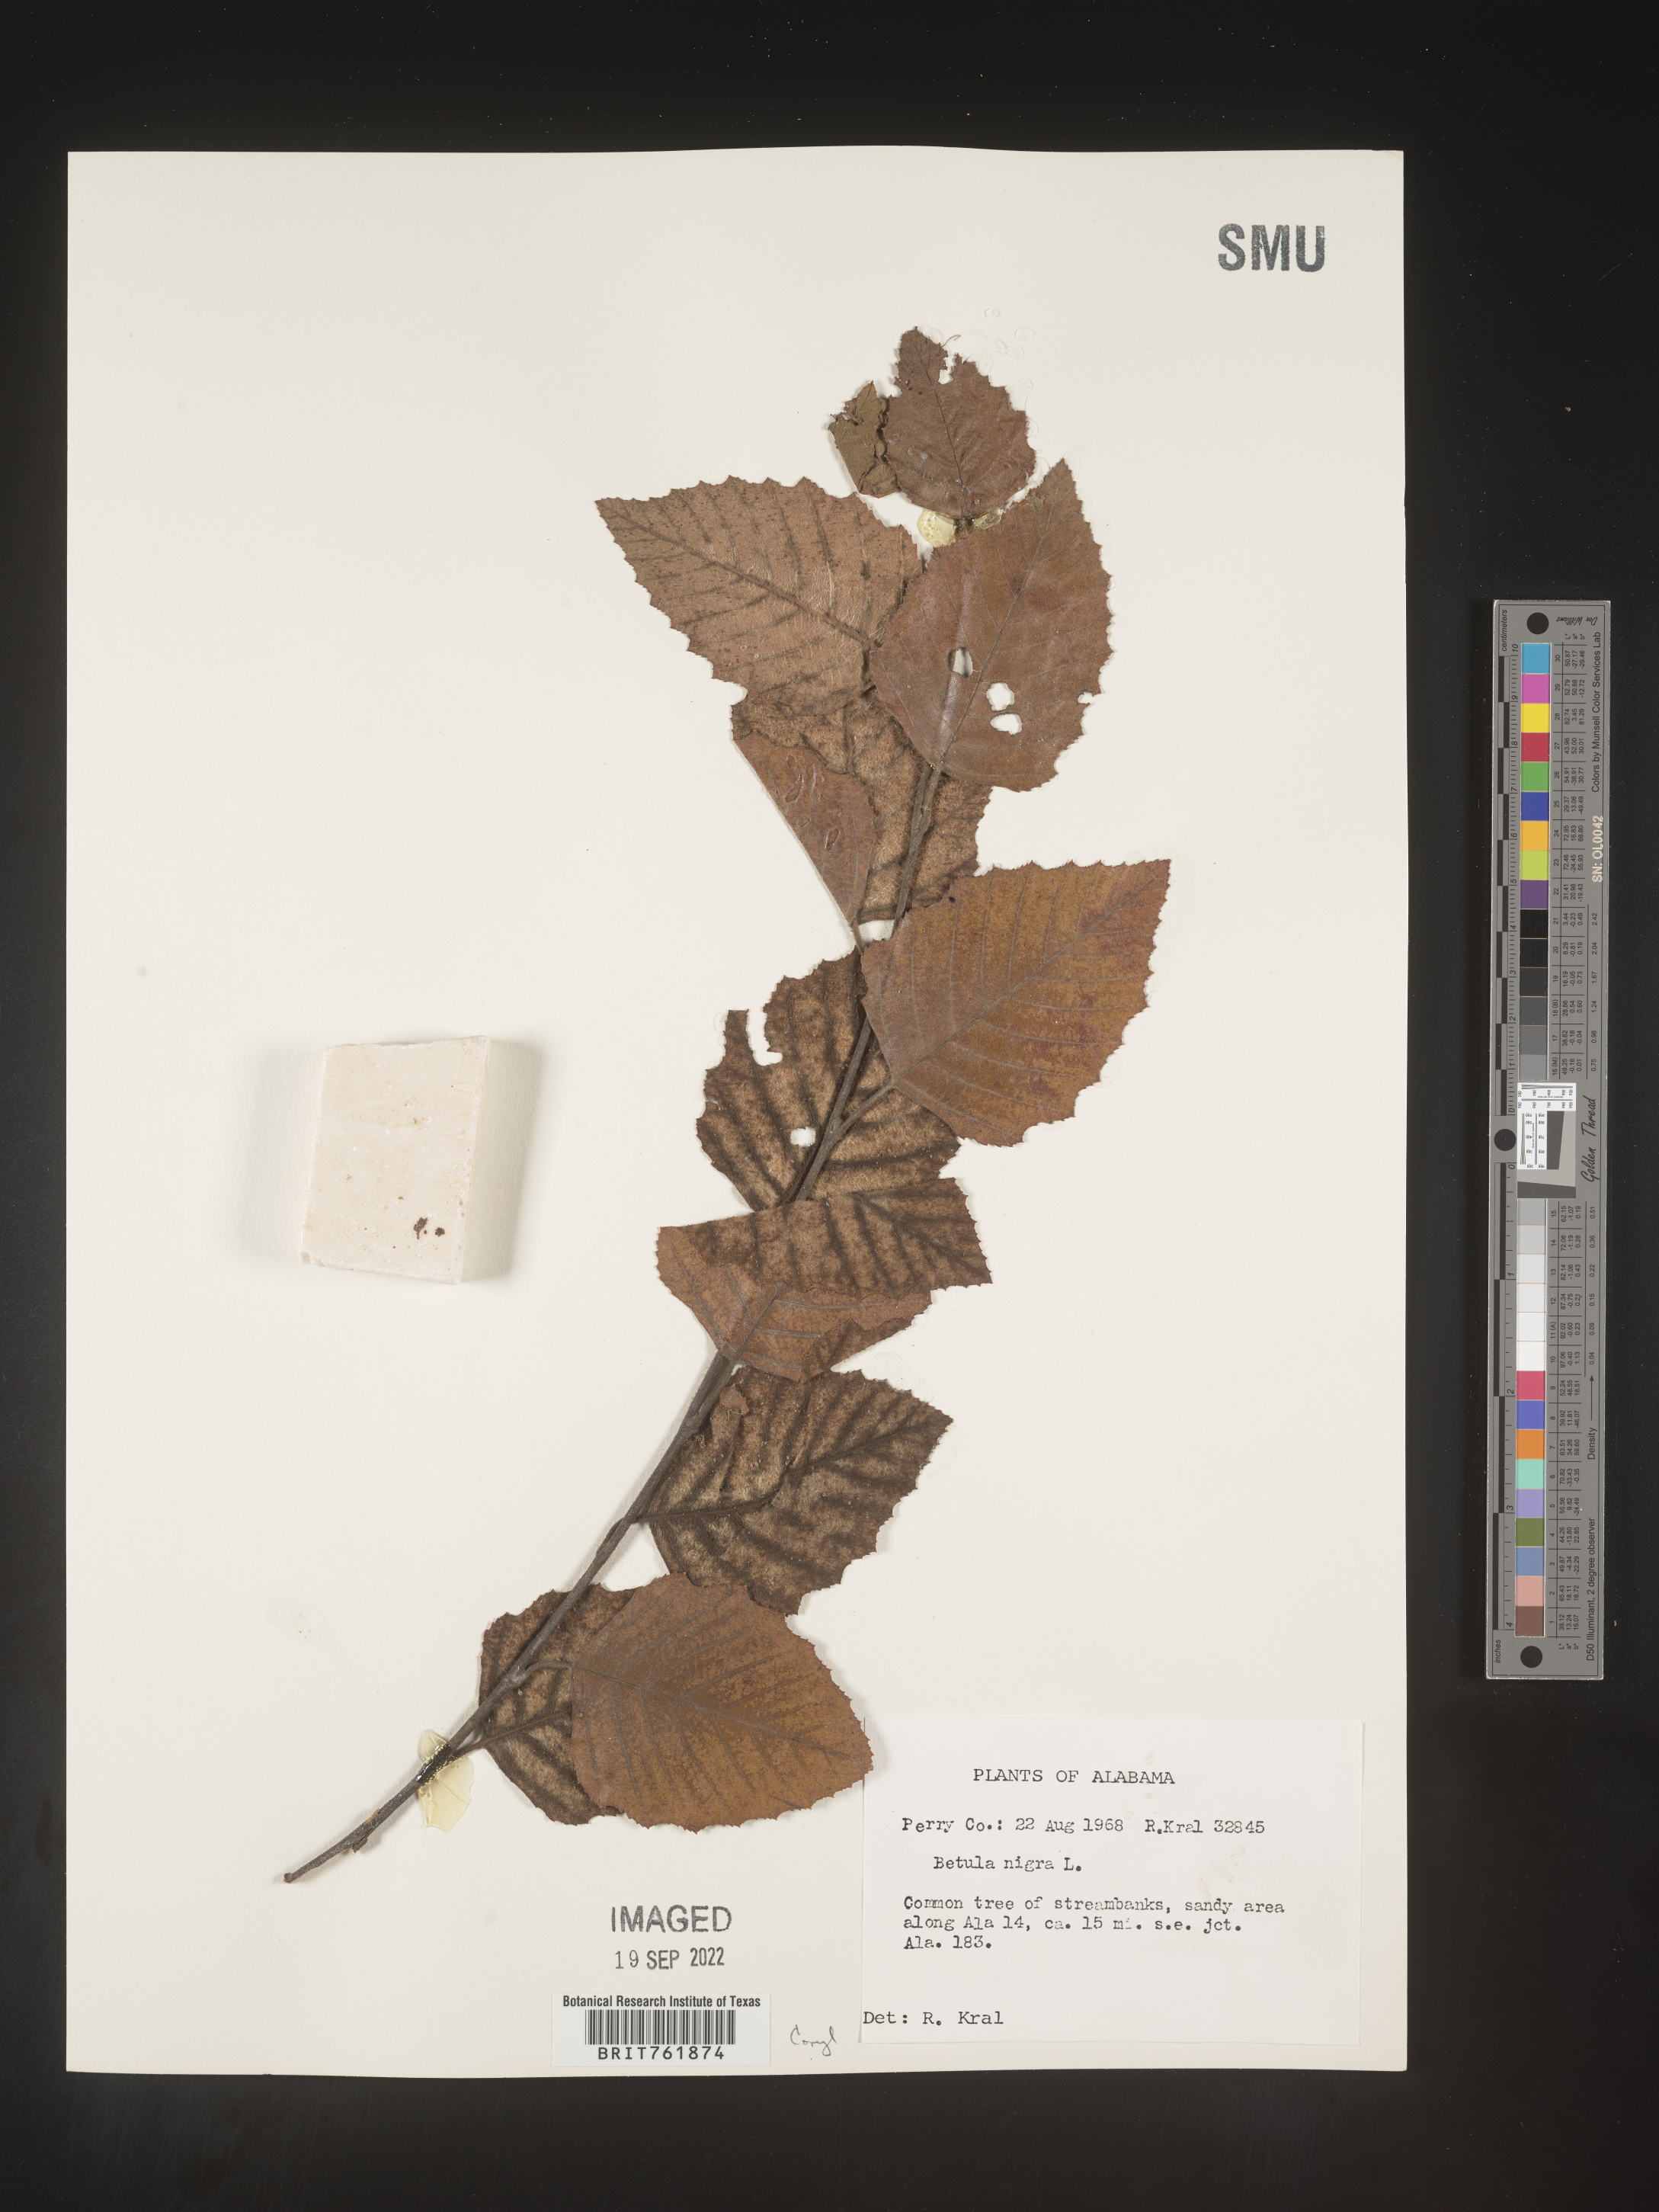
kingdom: Plantae
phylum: Tracheophyta
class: Magnoliopsida
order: Fagales
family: Betulaceae
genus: Betula
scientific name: Betula nigra
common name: Black birch
